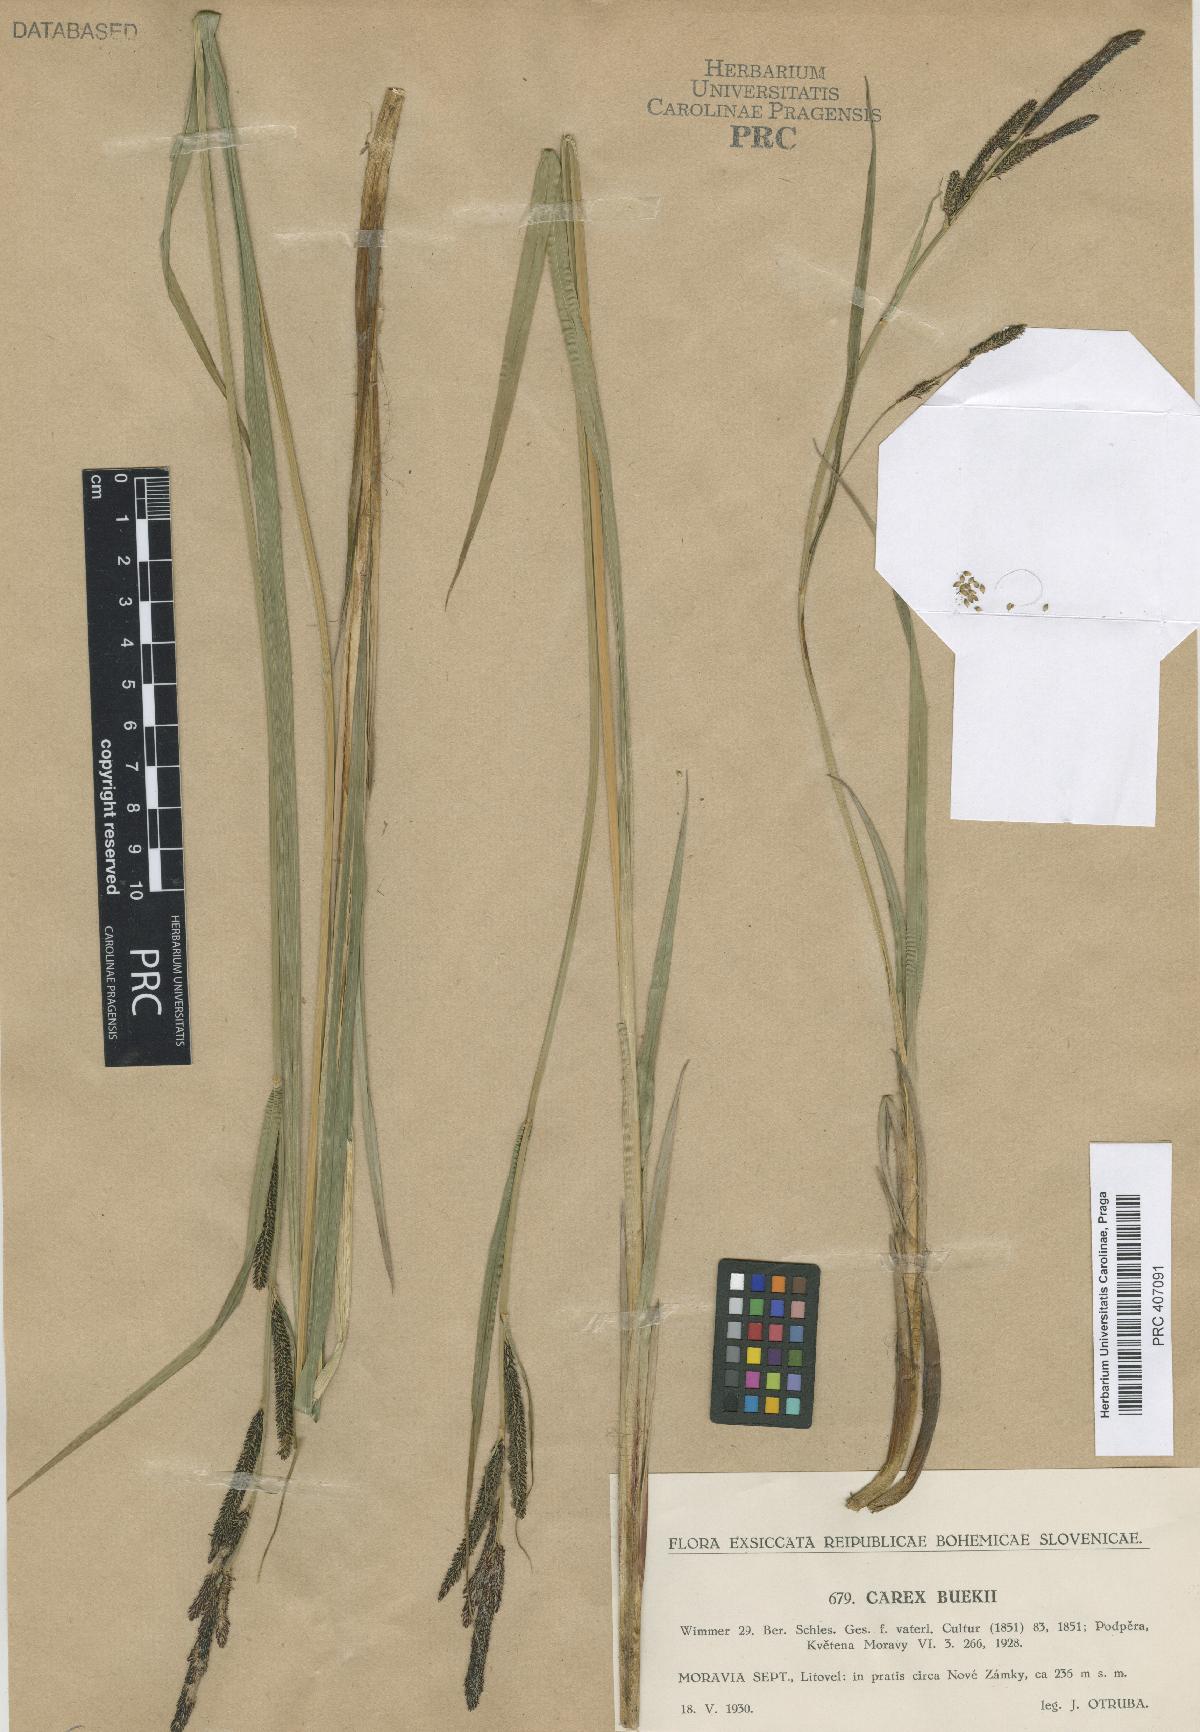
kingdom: Plantae
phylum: Tracheophyta
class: Liliopsida
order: Poales
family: Cyperaceae
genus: Carex
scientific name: Carex buekii
